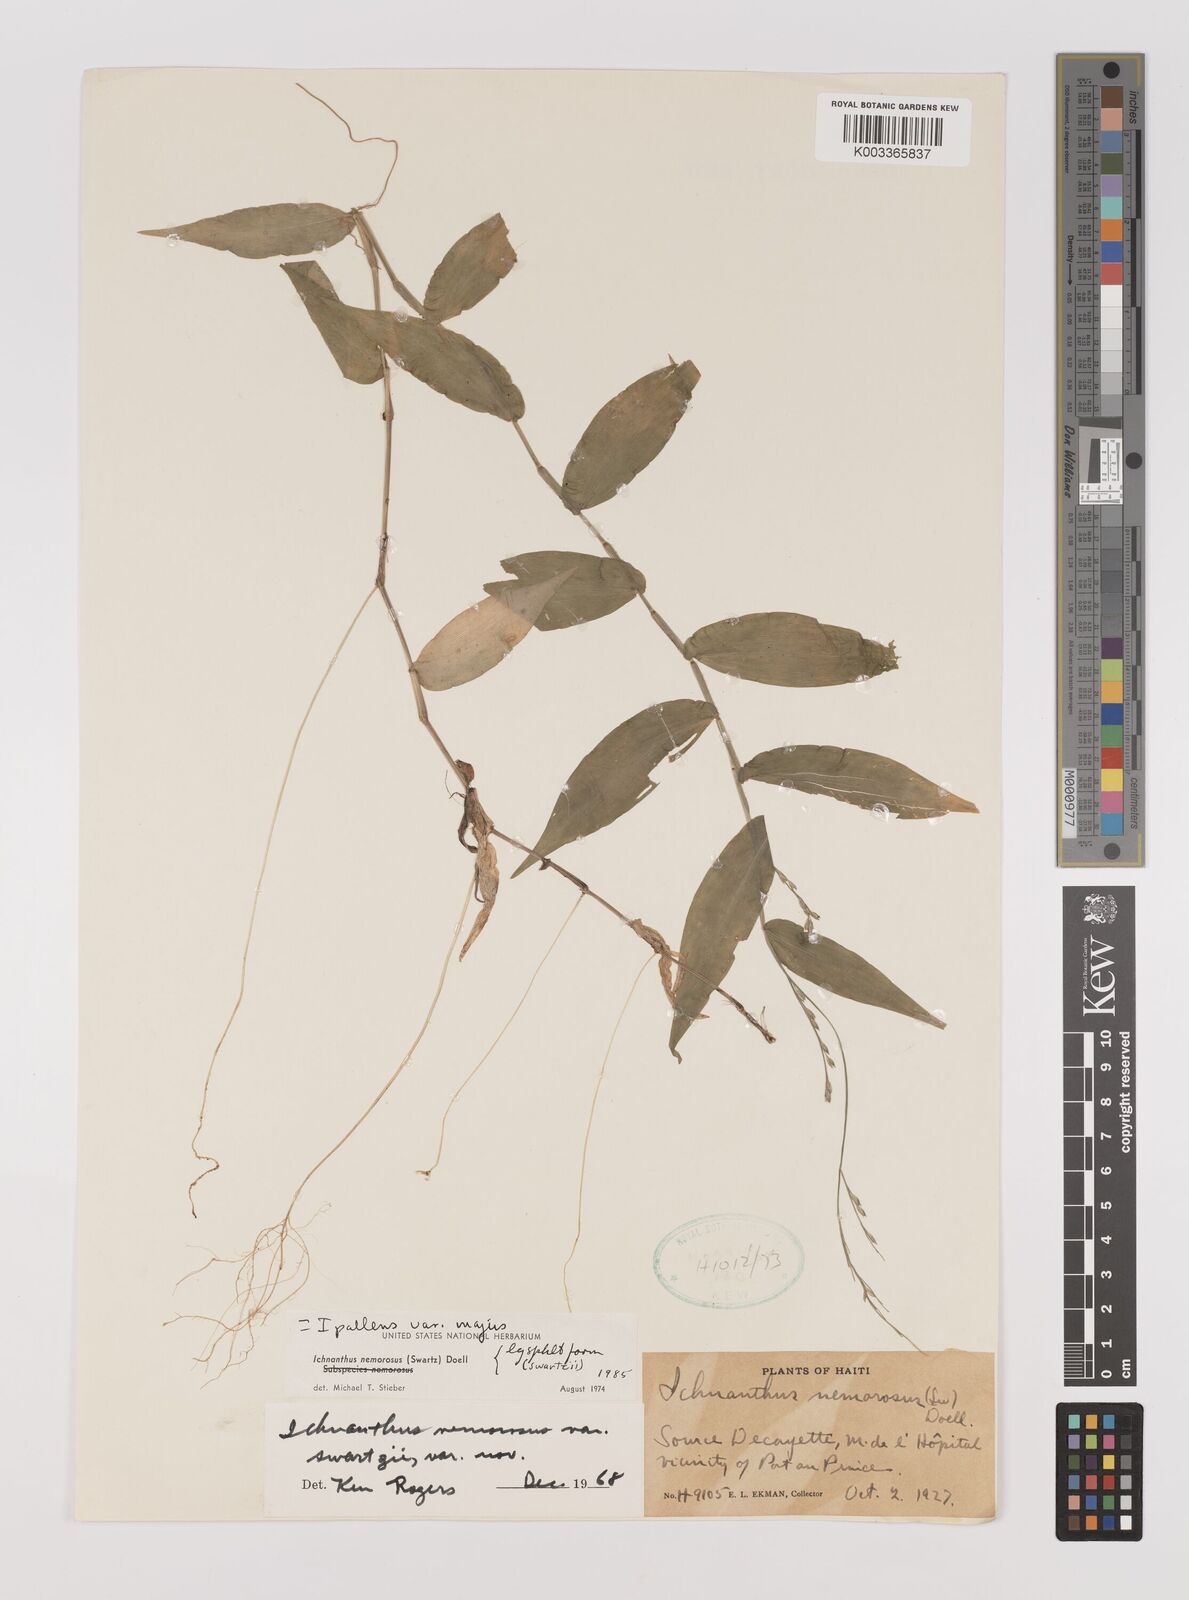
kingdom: Plantae
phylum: Tracheophyta
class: Liliopsida
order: Poales
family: Poaceae
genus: Ichnanthus
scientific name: Ichnanthus pallens
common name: Water grass
